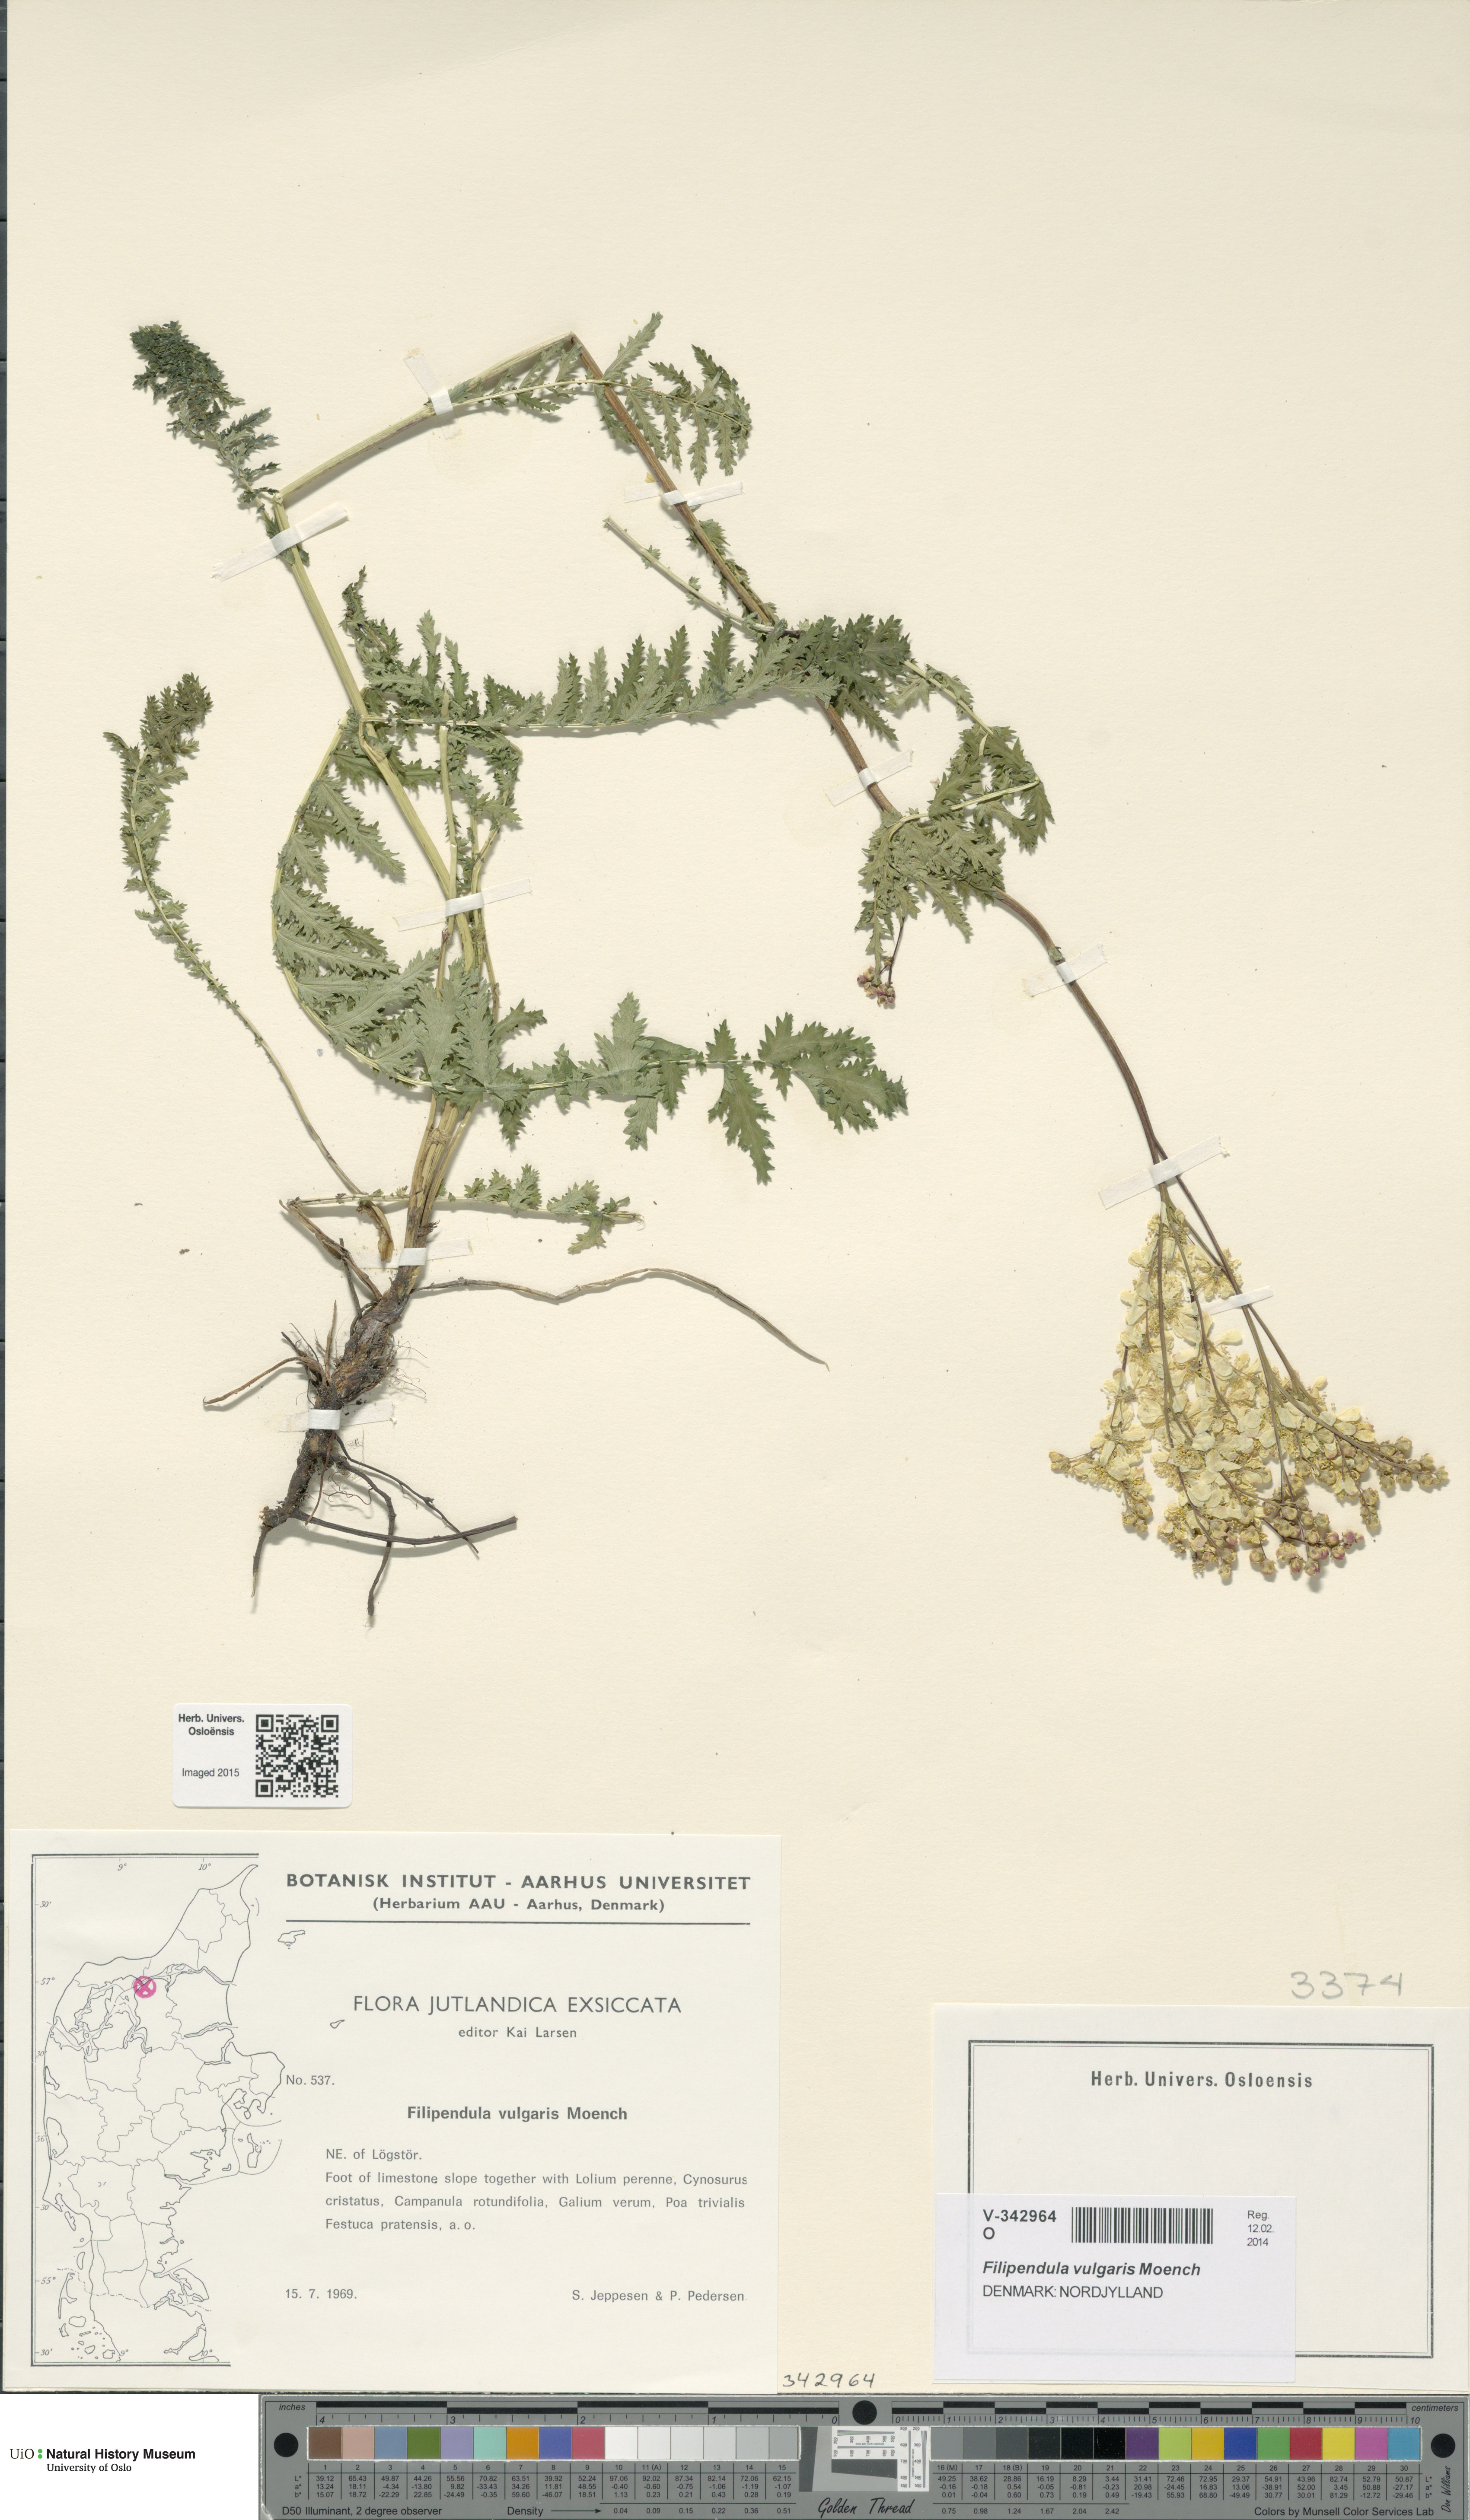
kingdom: Plantae
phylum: Tracheophyta
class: Magnoliopsida
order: Rosales
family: Rosaceae
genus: Filipendula
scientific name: Filipendula vulgaris
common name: Dropwort
